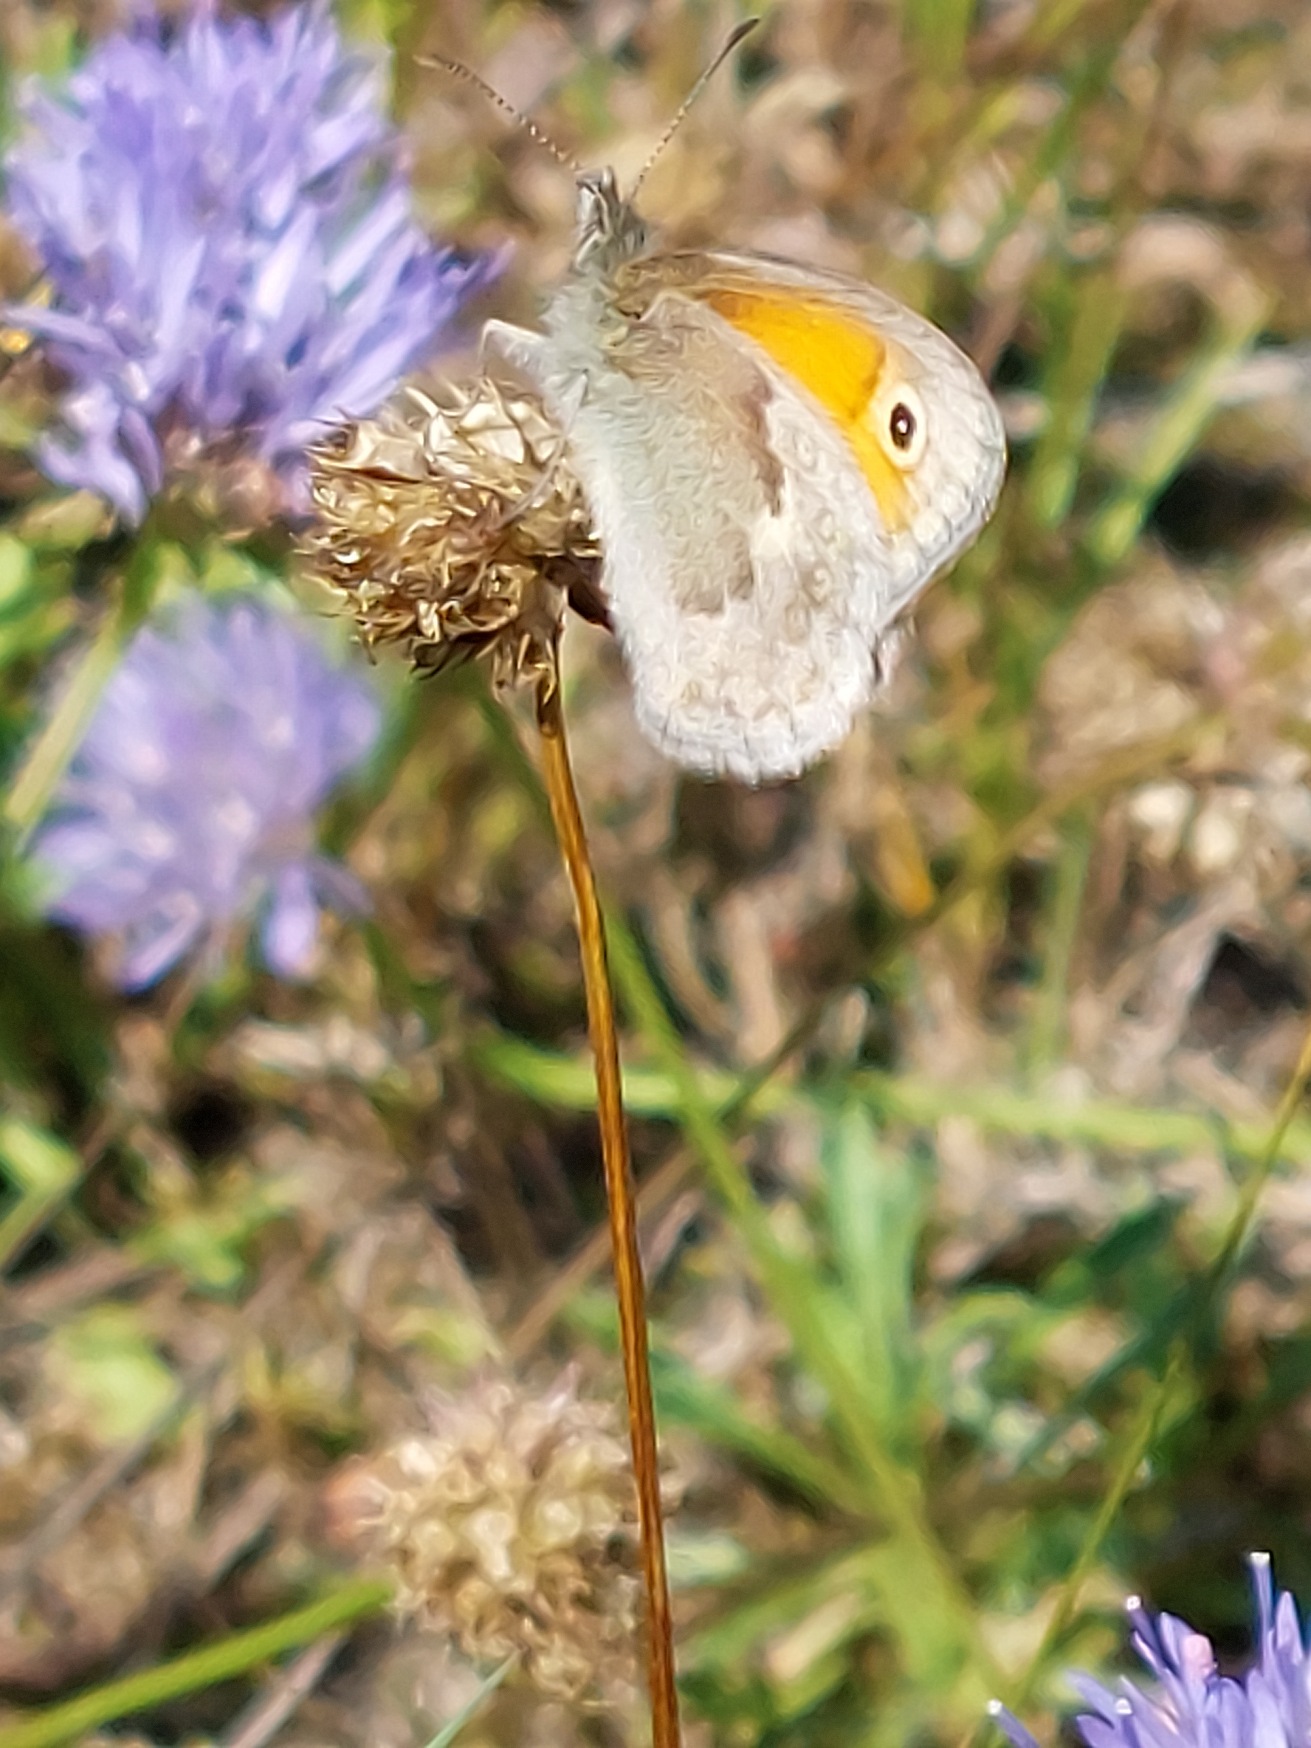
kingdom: Animalia
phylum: Arthropoda
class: Insecta
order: Lepidoptera
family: Nymphalidae
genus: Coenonympha
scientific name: Coenonympha pamphilus
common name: Okkergul randøje
